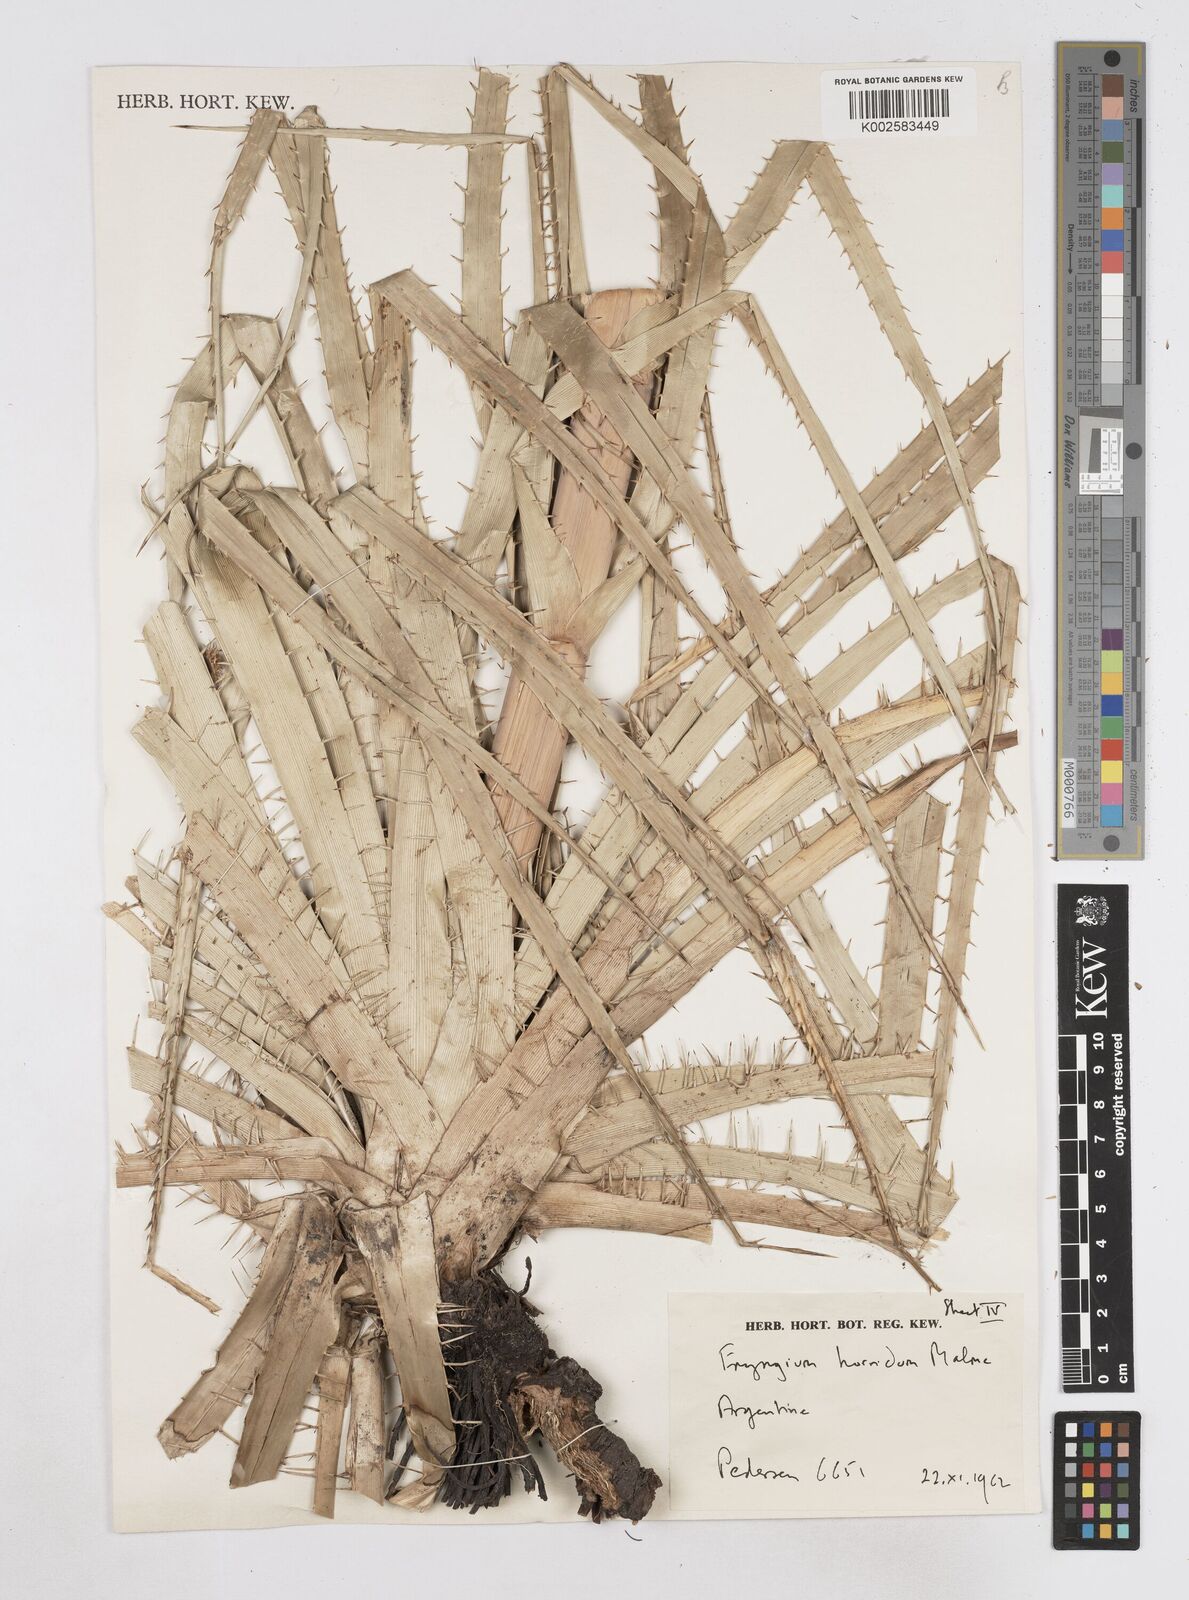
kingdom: Plantae
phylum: Tracheophyta
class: Magnoliopsida
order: Apiales
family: Apiaceae
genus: Eryngium
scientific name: Eryngium horridum
